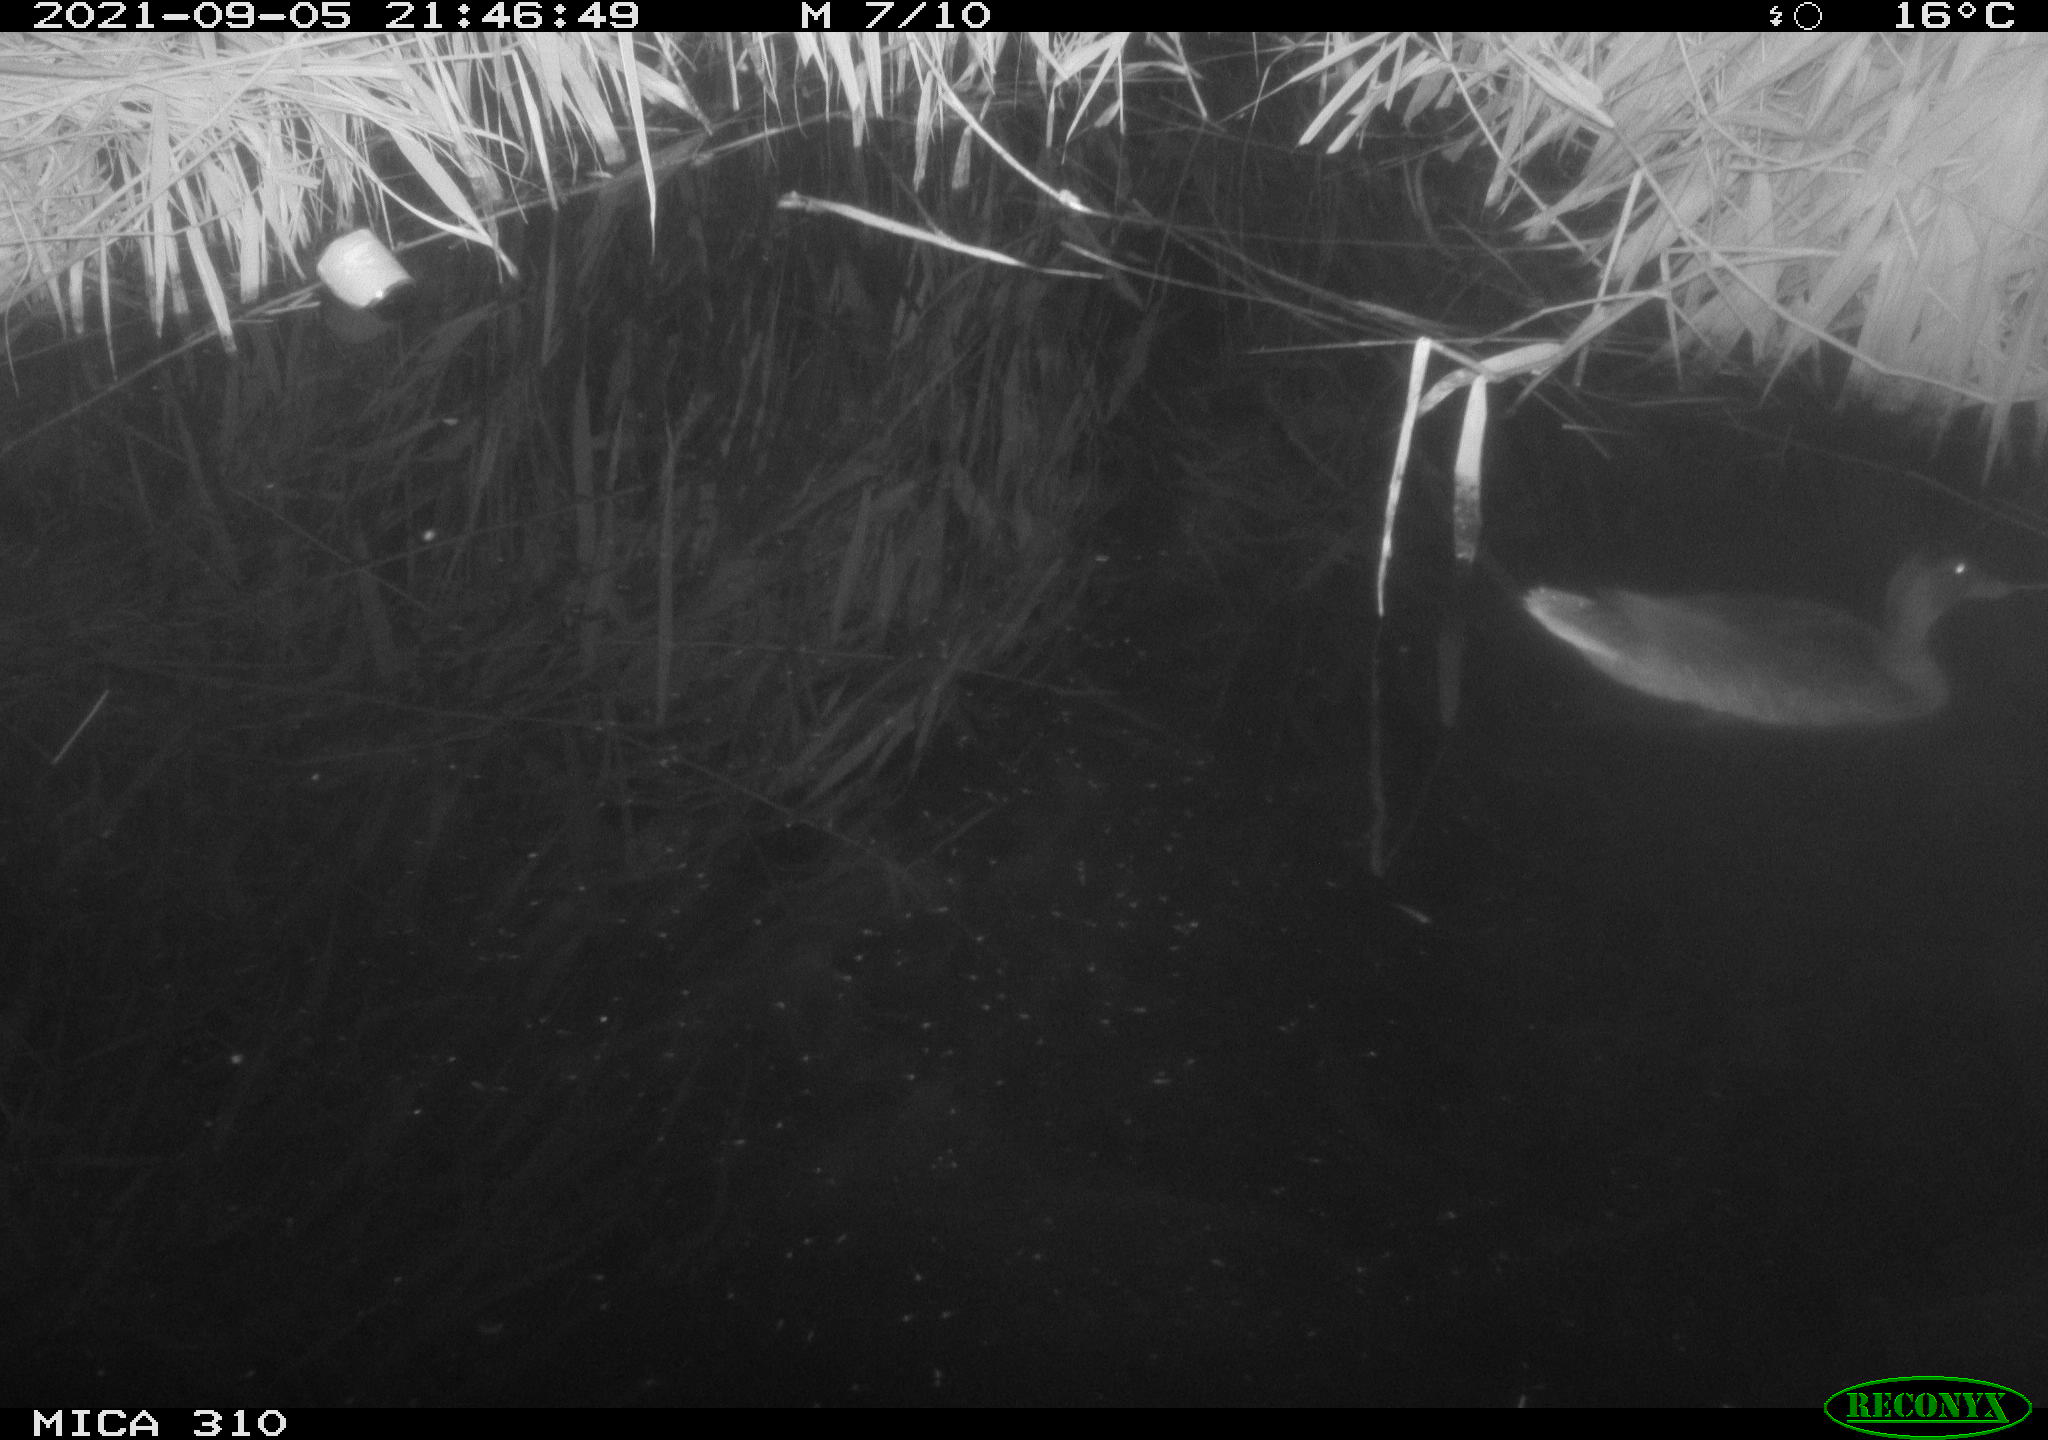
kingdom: Animalia
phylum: Chordata
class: Aves
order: Anseriformes
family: Anatidae
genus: Anas
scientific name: Anas platyrhynchos
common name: Mallard
